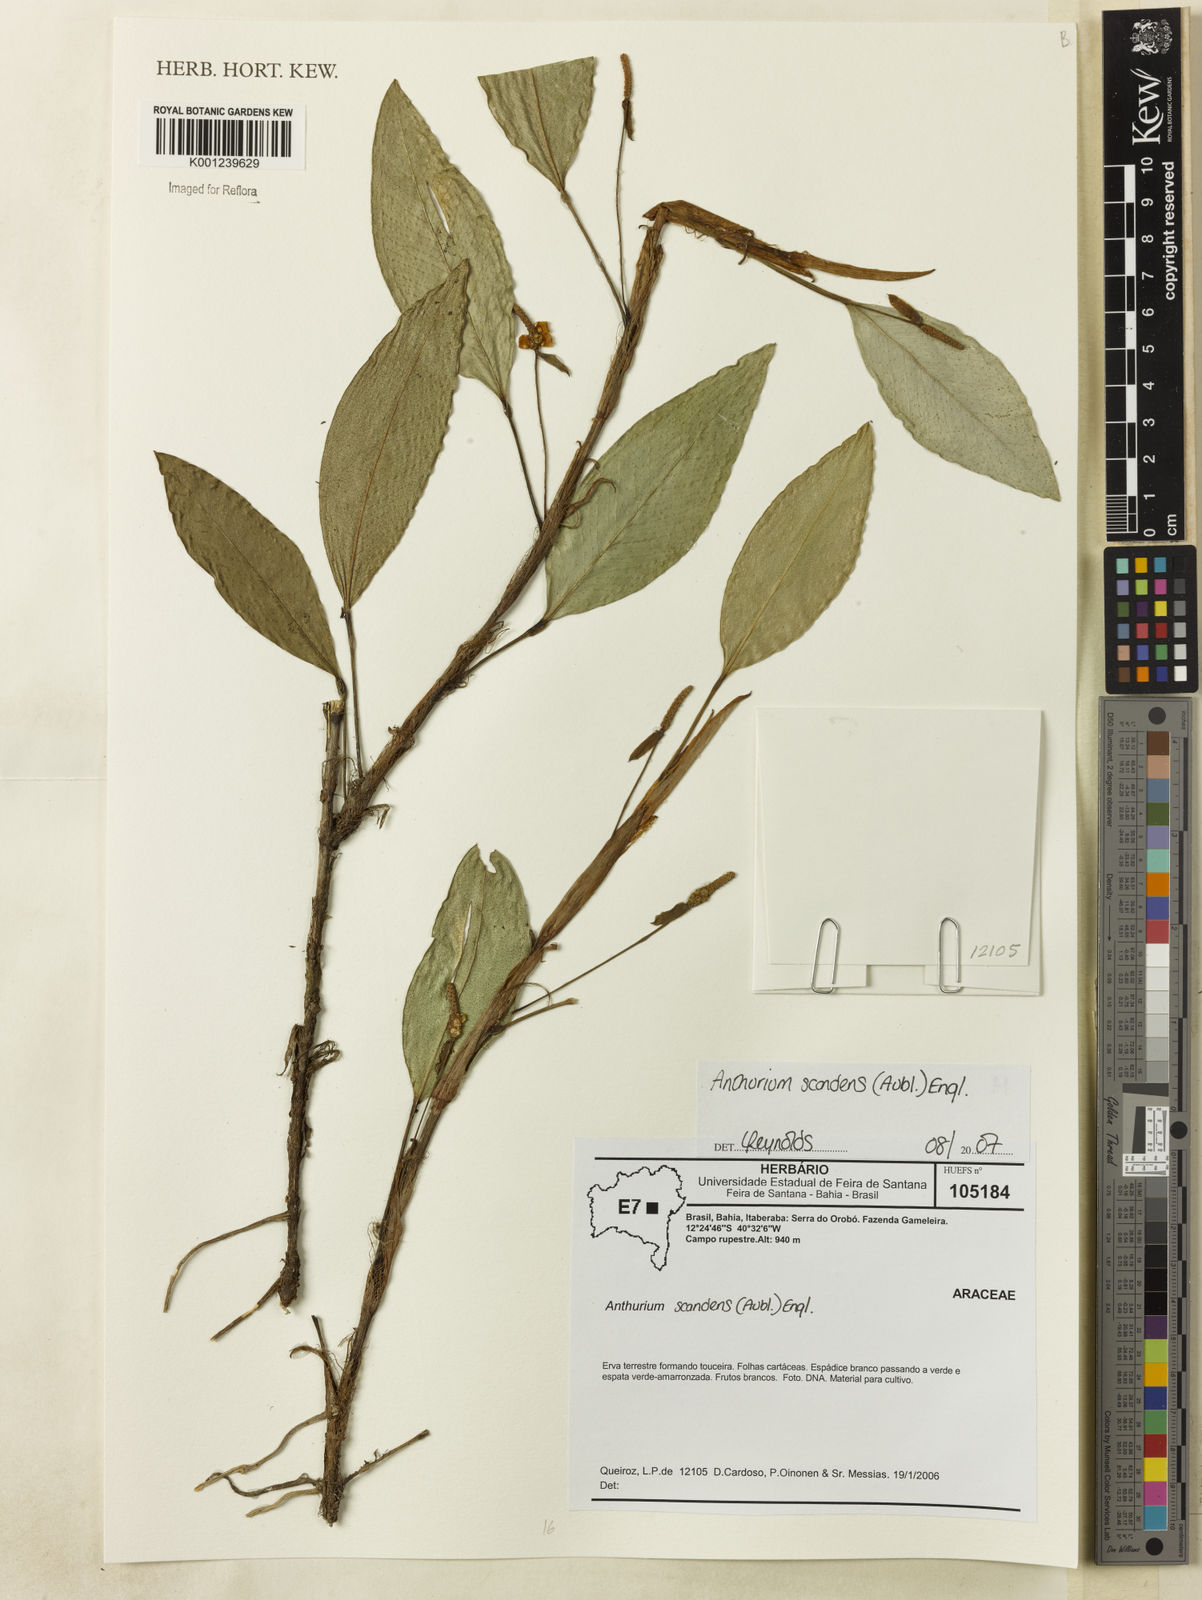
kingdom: Plantae
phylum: Tracheophyta
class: Liliopsida
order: Alismatales
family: Araceae
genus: Anthurium
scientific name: Anthurium scandens
